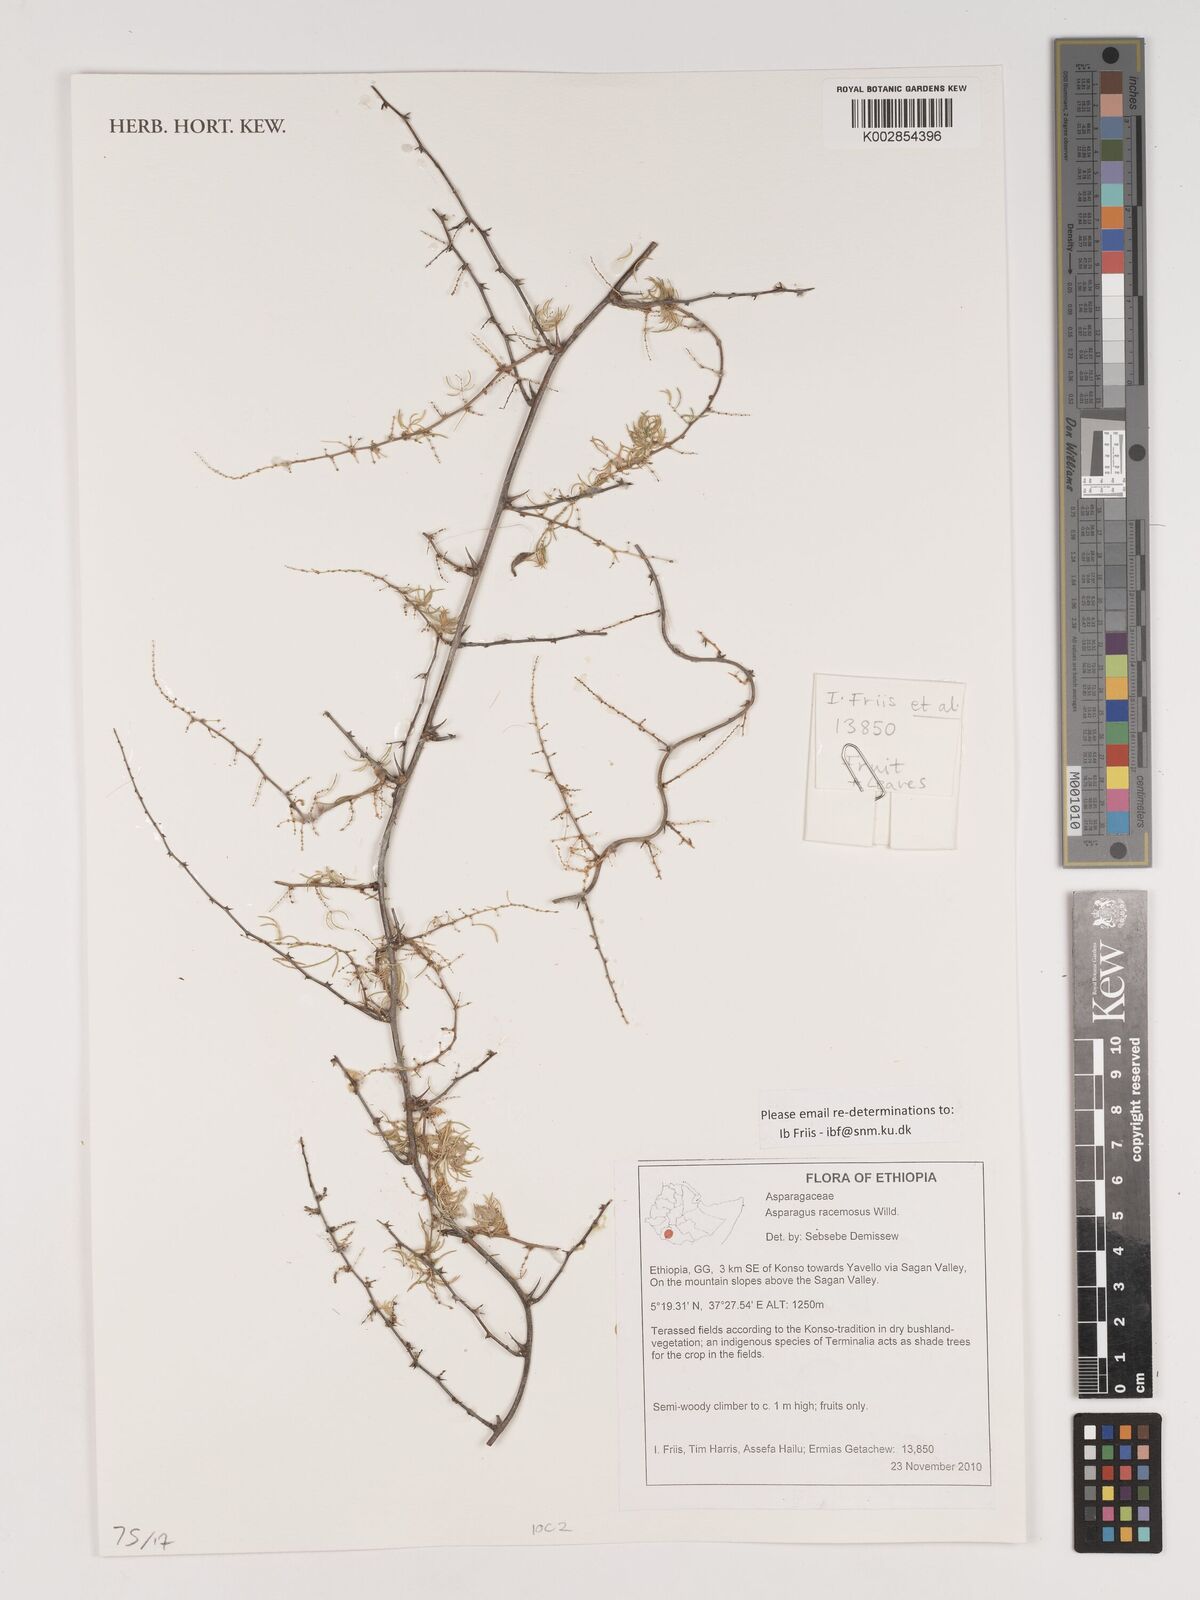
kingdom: Plantae
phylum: Tracheophyta
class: Liliopsida
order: Asparagales
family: Asparagaceae
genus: Asparagus
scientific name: Asparagus racemosus
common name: Asparagus-fern
